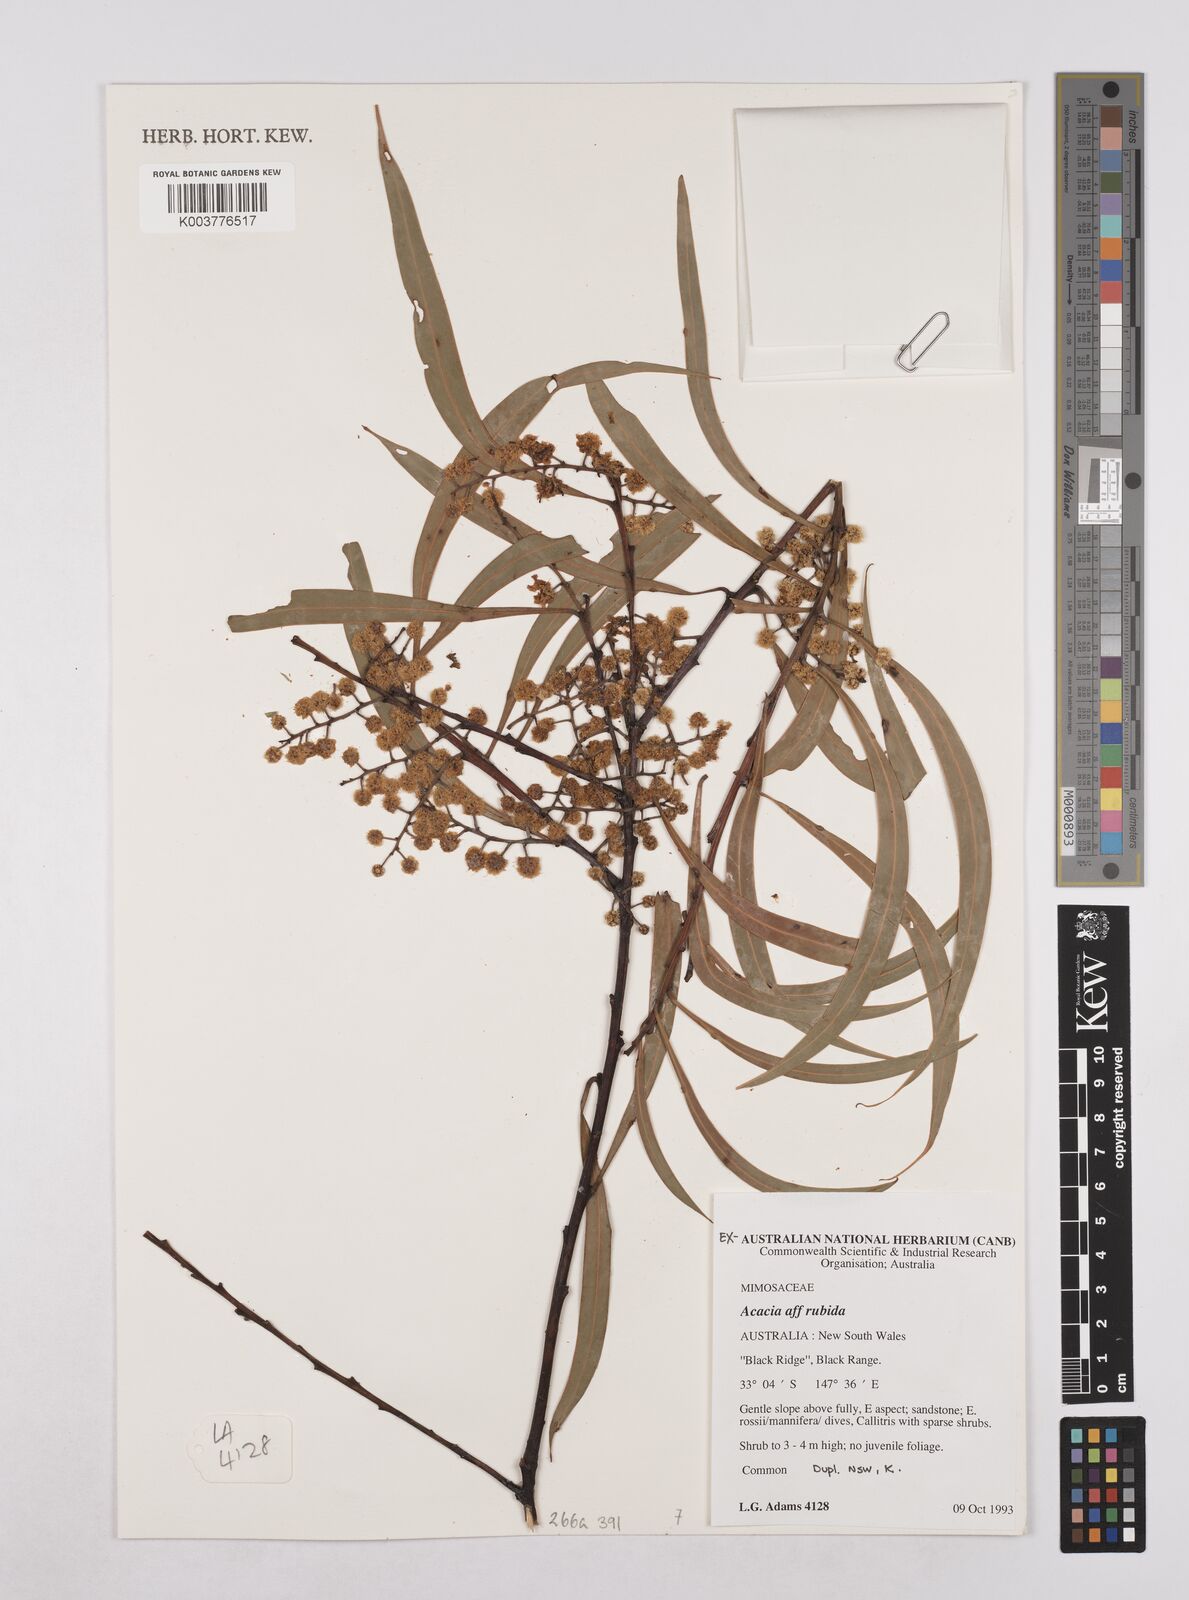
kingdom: Plantae
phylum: Tracheophyta
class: Magnoliopsida
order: Fabales
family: Fabaceae
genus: Acacia
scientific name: Acacia rubida
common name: Red leaf wattle
